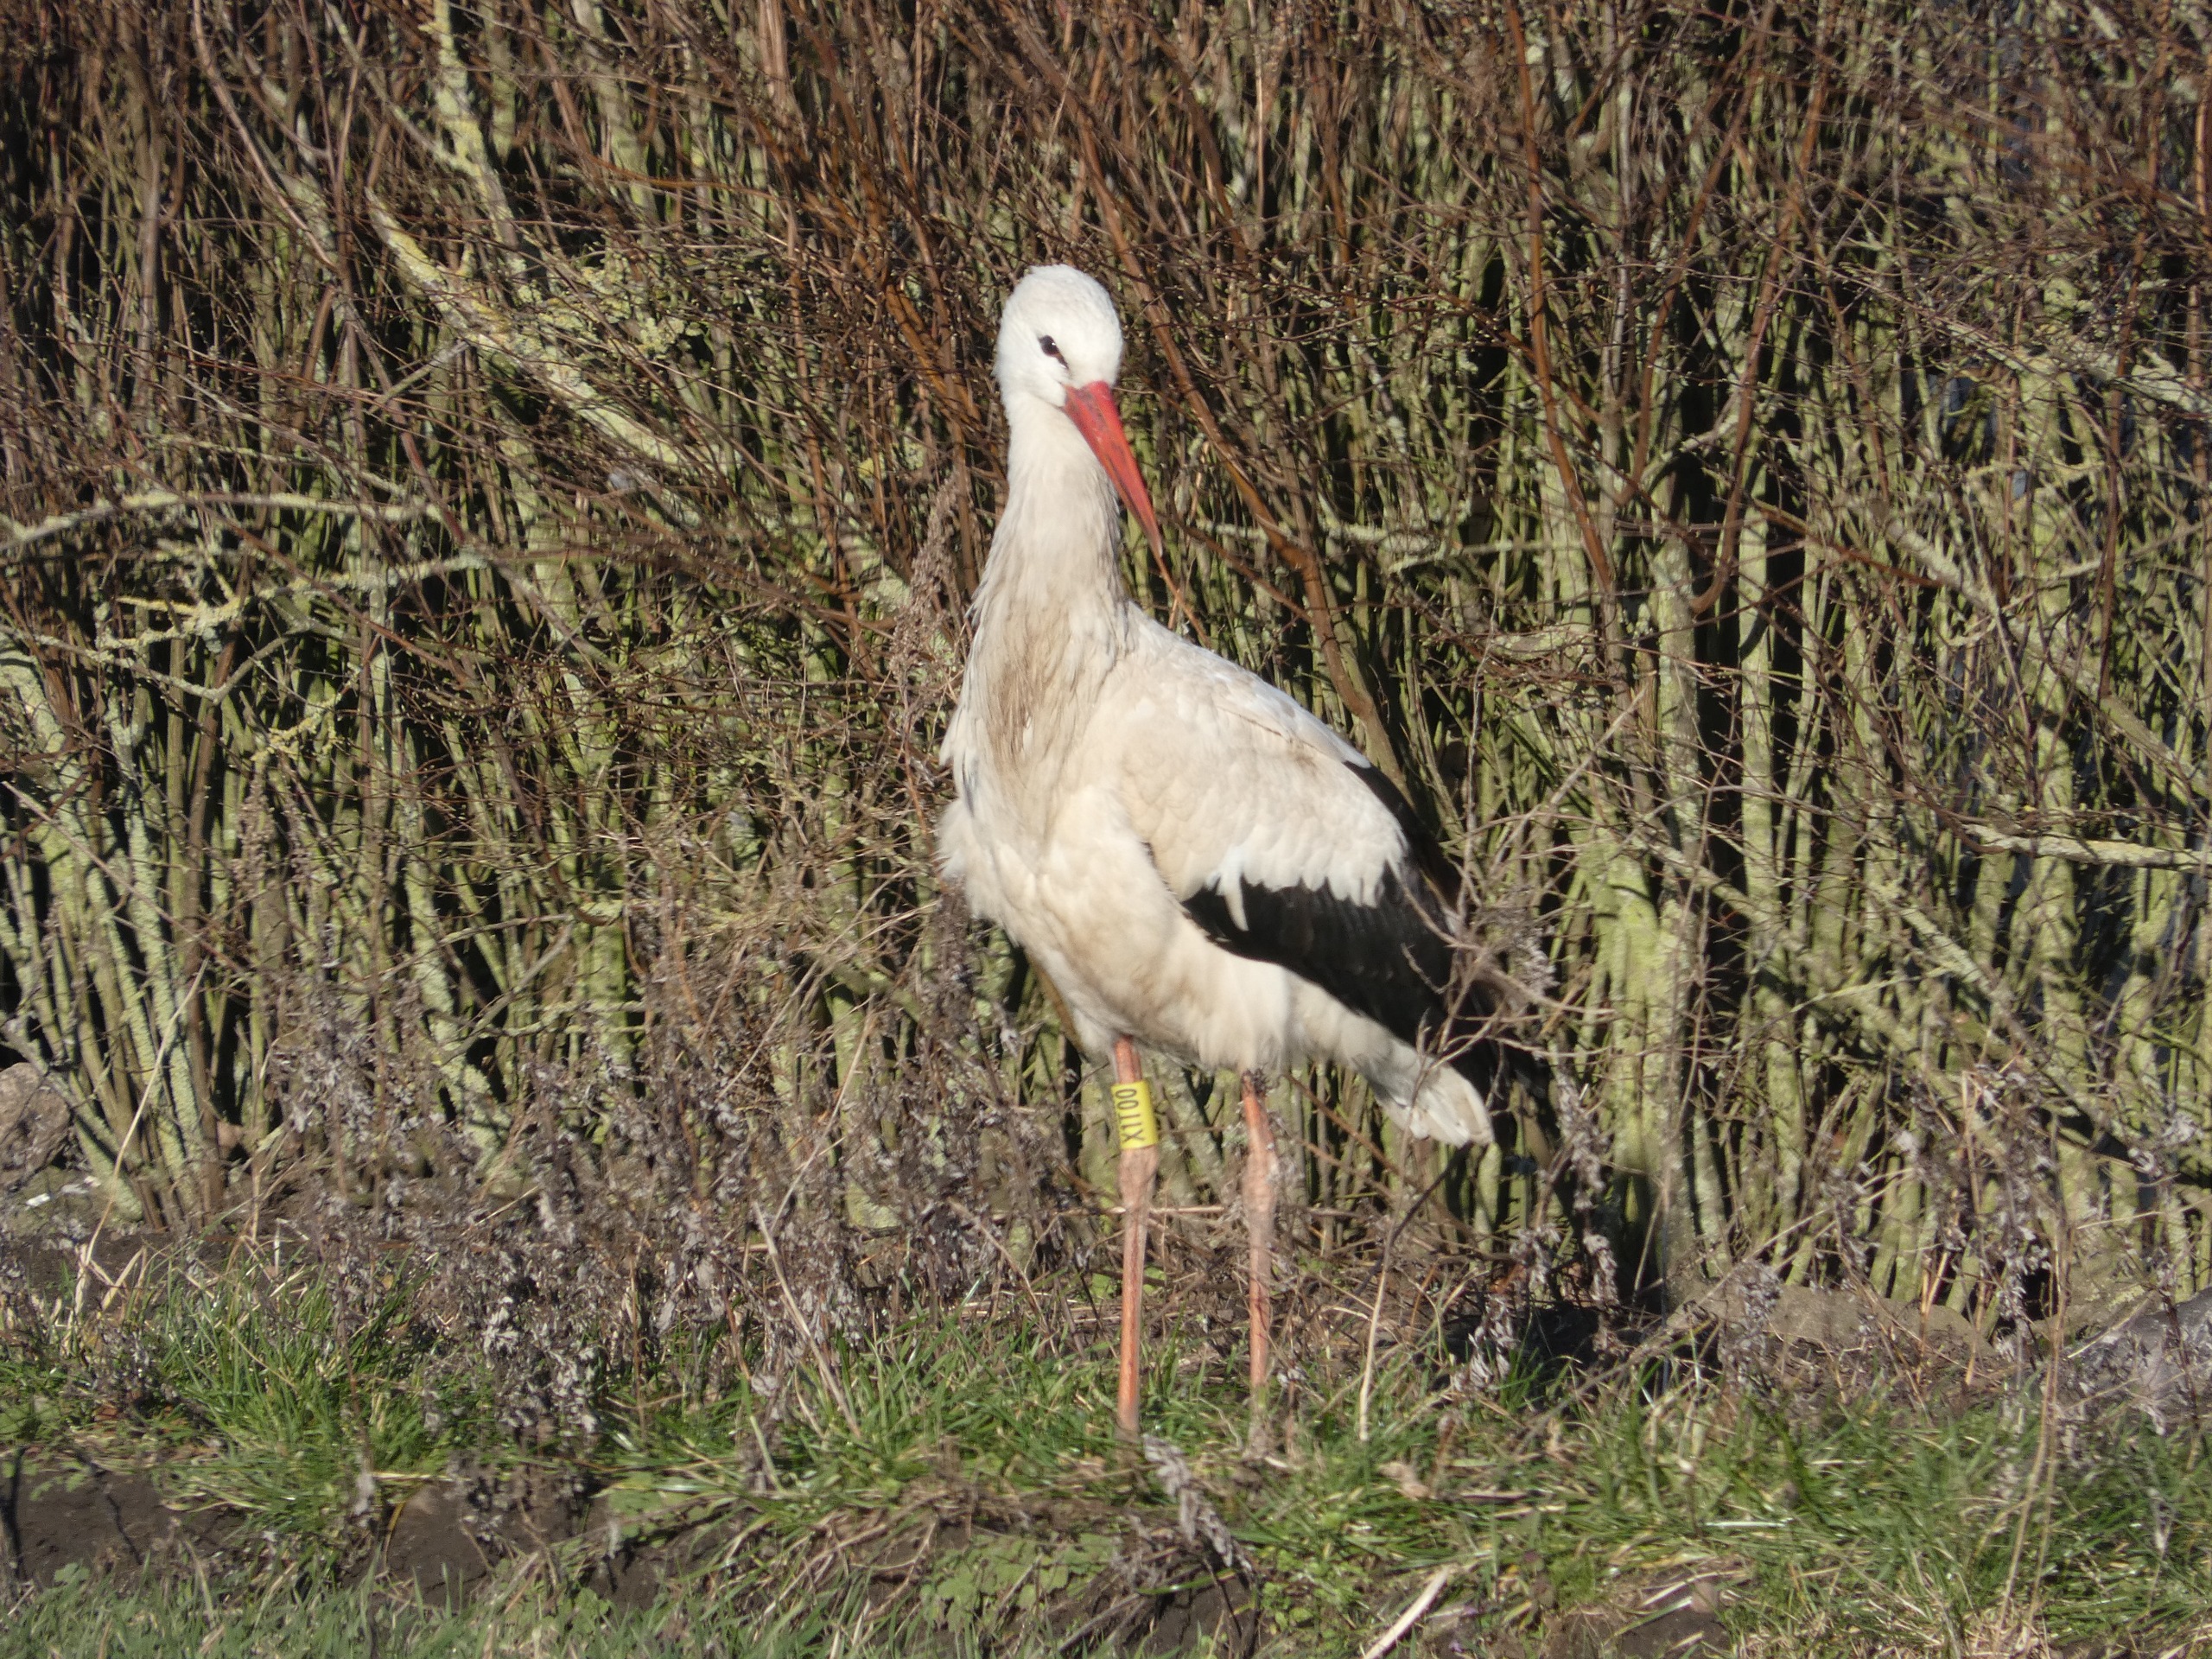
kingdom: Animalia
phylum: Chordata
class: Aves
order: Ciconiiformes
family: Ciconiidae
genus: Ciconia
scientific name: Ciconia ciconia
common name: Hvid stork
